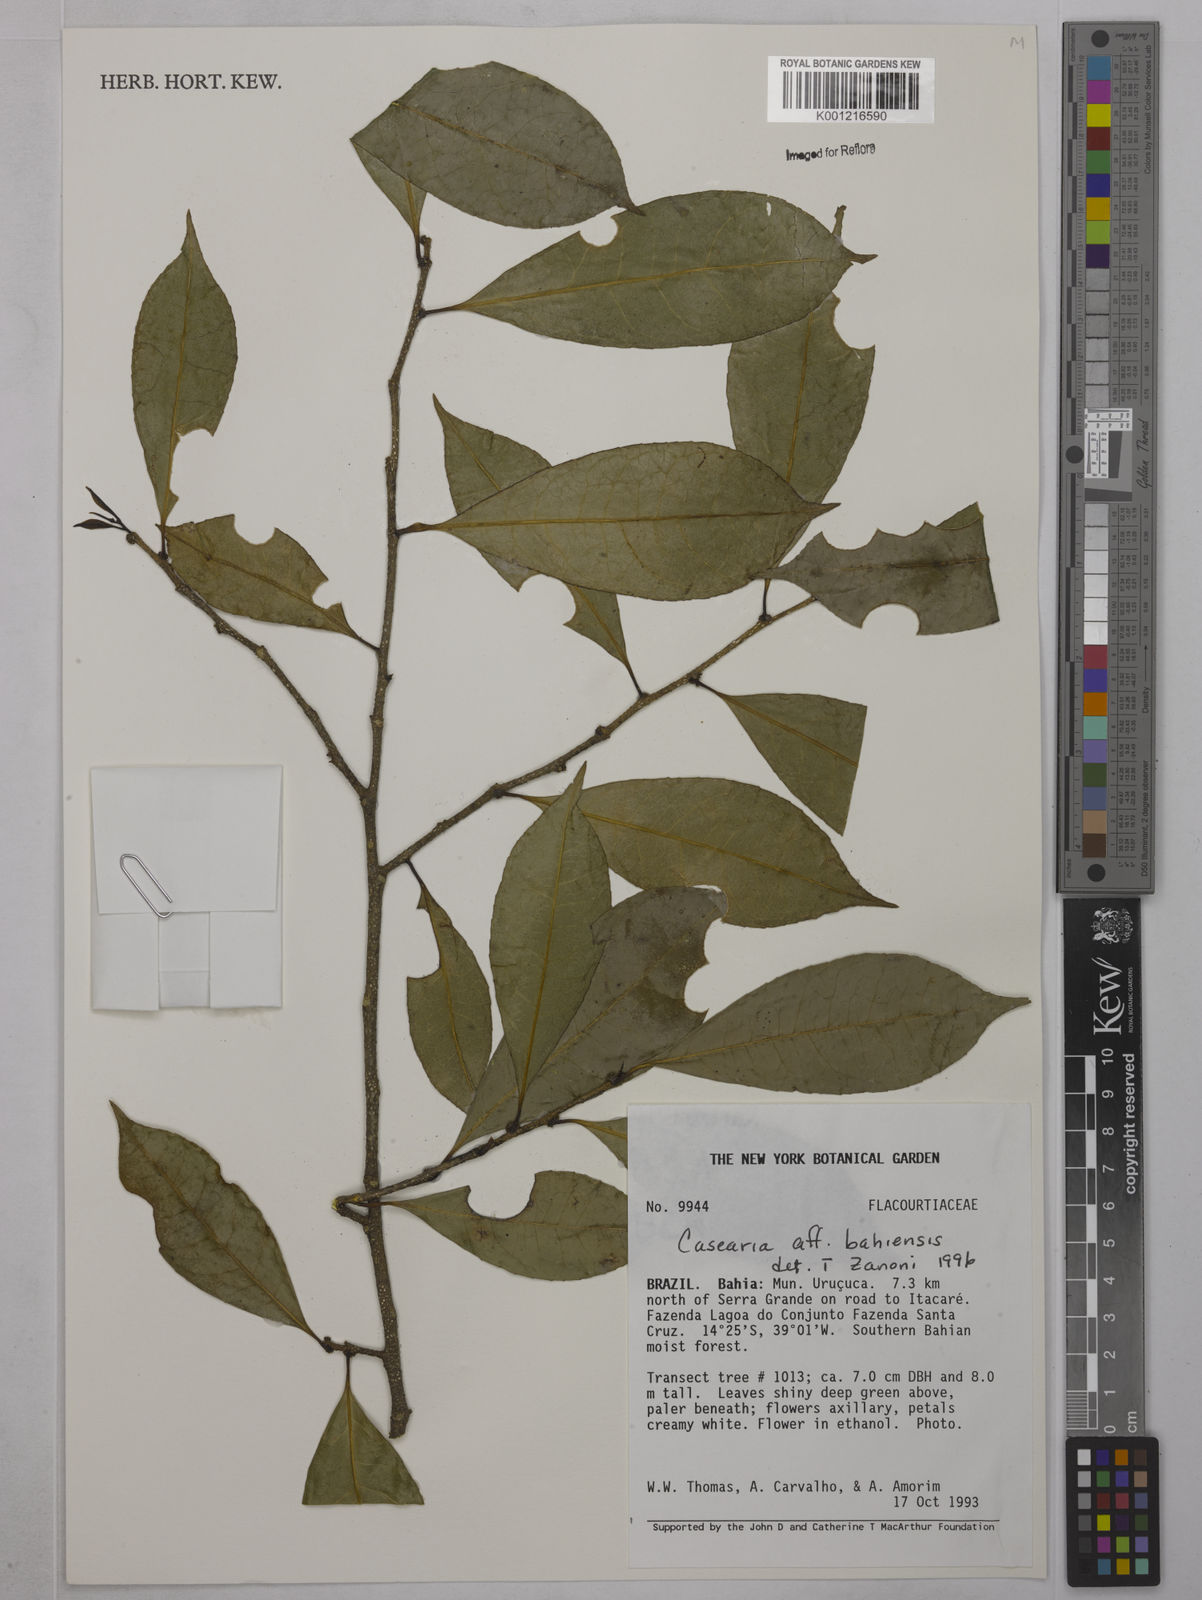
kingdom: Plantae
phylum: Tracheophyta
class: Magnoliopsida
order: Malpighiales
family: Salicaceae
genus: Casearia
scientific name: Casearia bahiensis
